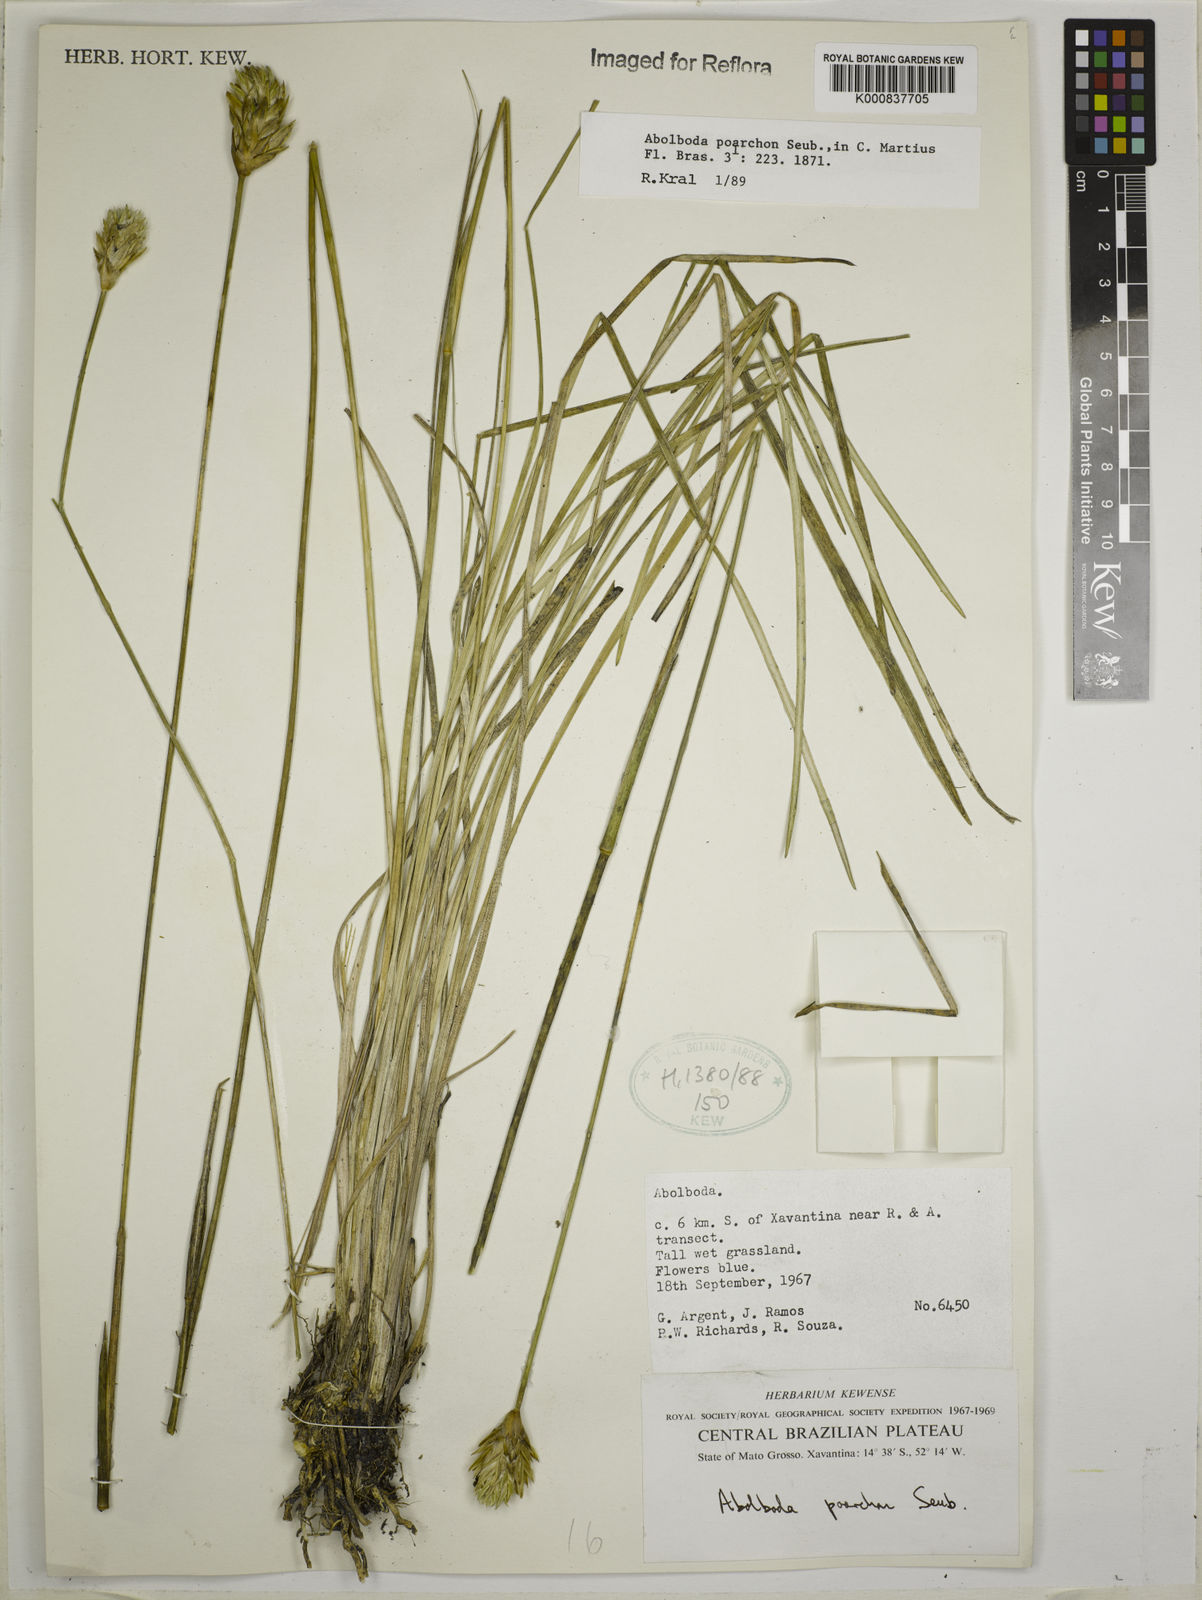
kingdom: Plantae
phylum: Tracheophyta
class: Liliopsida
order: Poales
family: Xyridaceae
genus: Abolboda
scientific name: Abolboda poarchon
